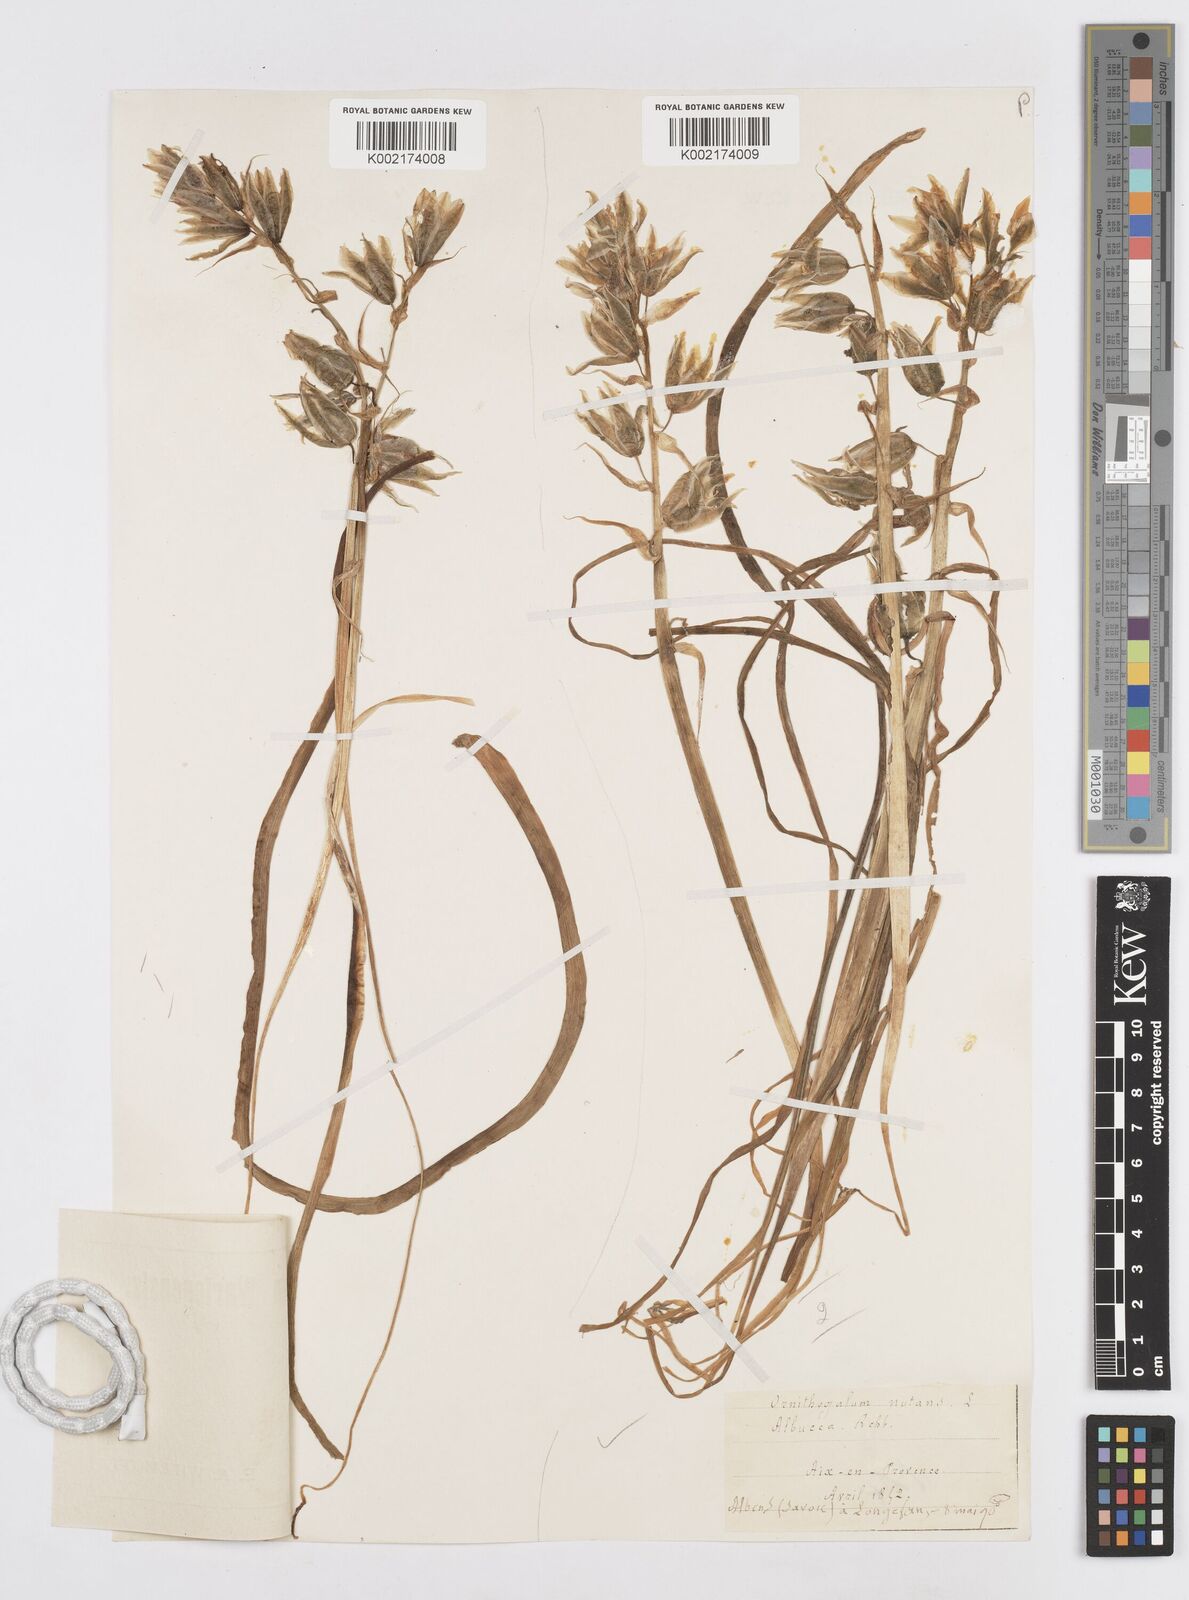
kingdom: Plantae
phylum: Tracheophyta
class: Liliopsida
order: Asparagales
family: Asparagaceae
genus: Ornithogalum
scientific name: Ornithogalum nutans
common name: Drooping star-of-bethlehem
